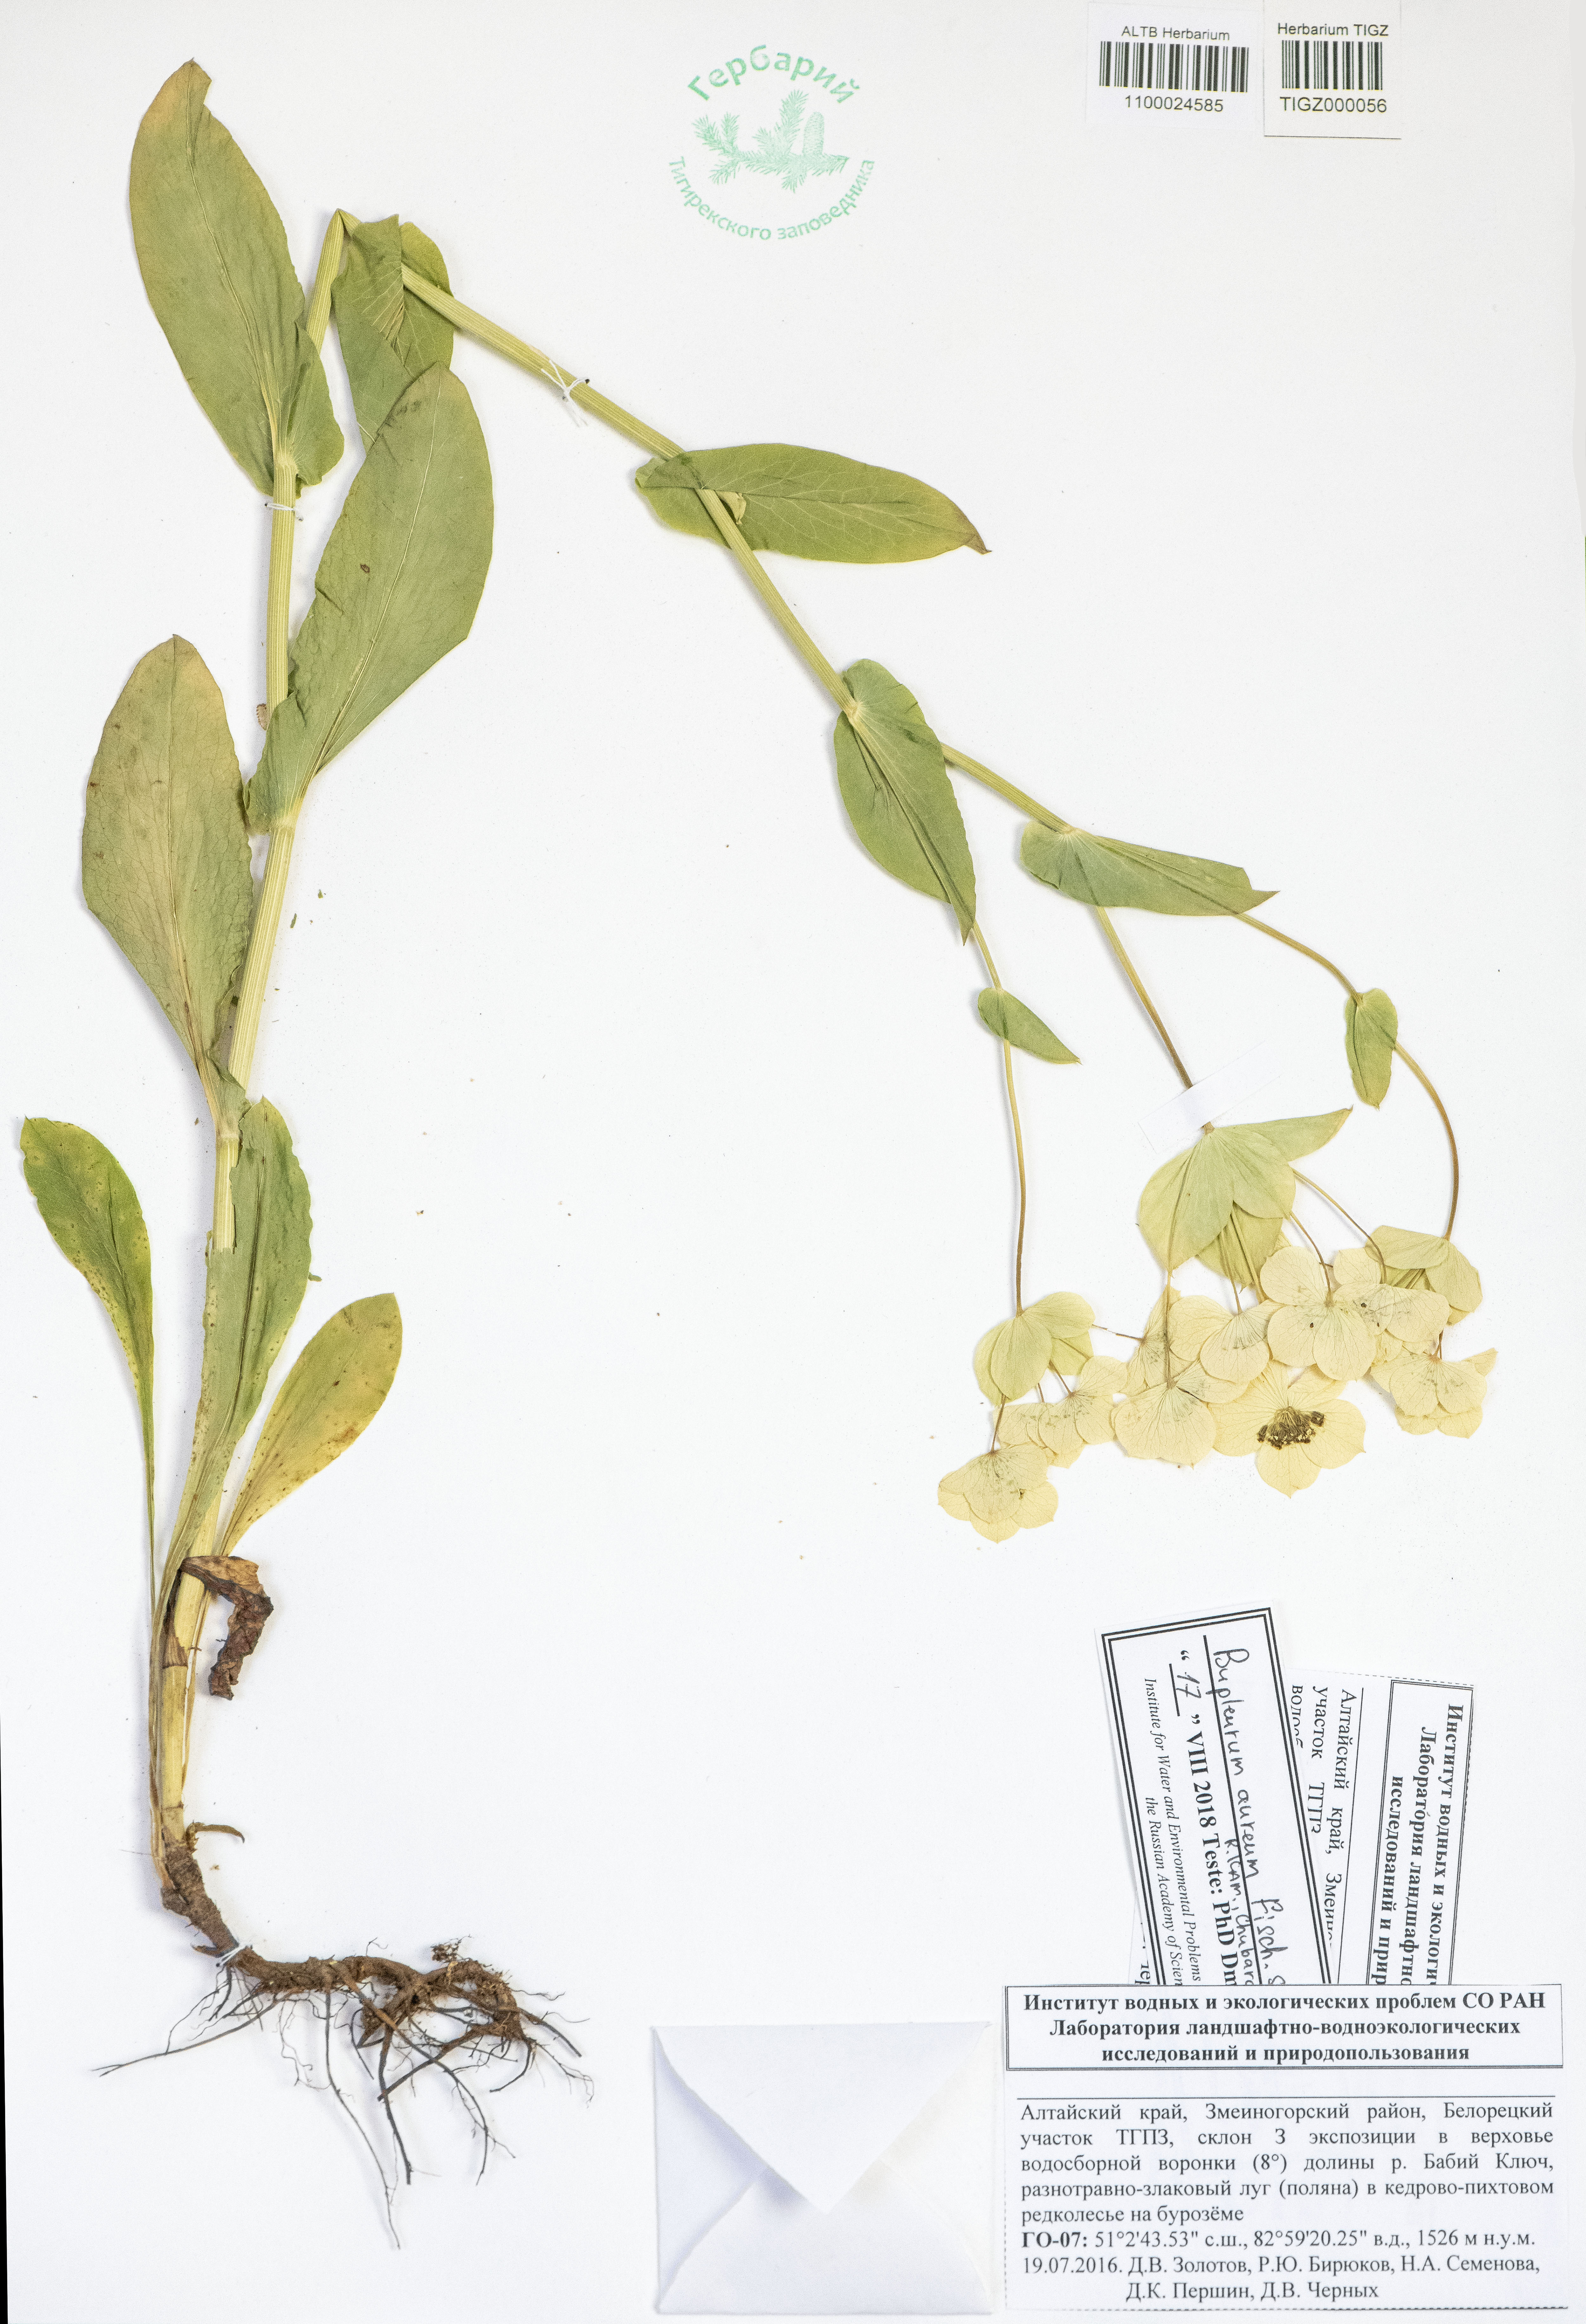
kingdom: Plantae
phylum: Tracheophyta
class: Magnoliopsida
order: Apiales
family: Apiaceae
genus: Bupleurum
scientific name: Bupleurum aureum
